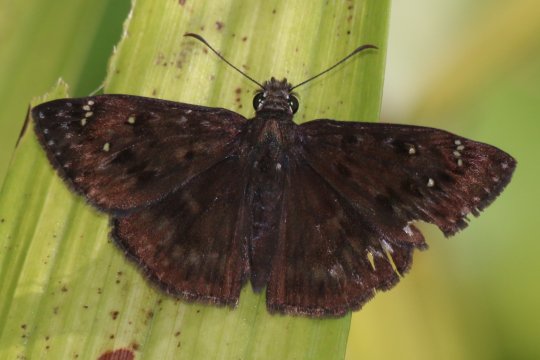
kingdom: Animalia
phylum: Arthropoda
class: Insecta
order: Lepidoptera
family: Hesperiidae
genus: Erynnis
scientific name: Erynnis
